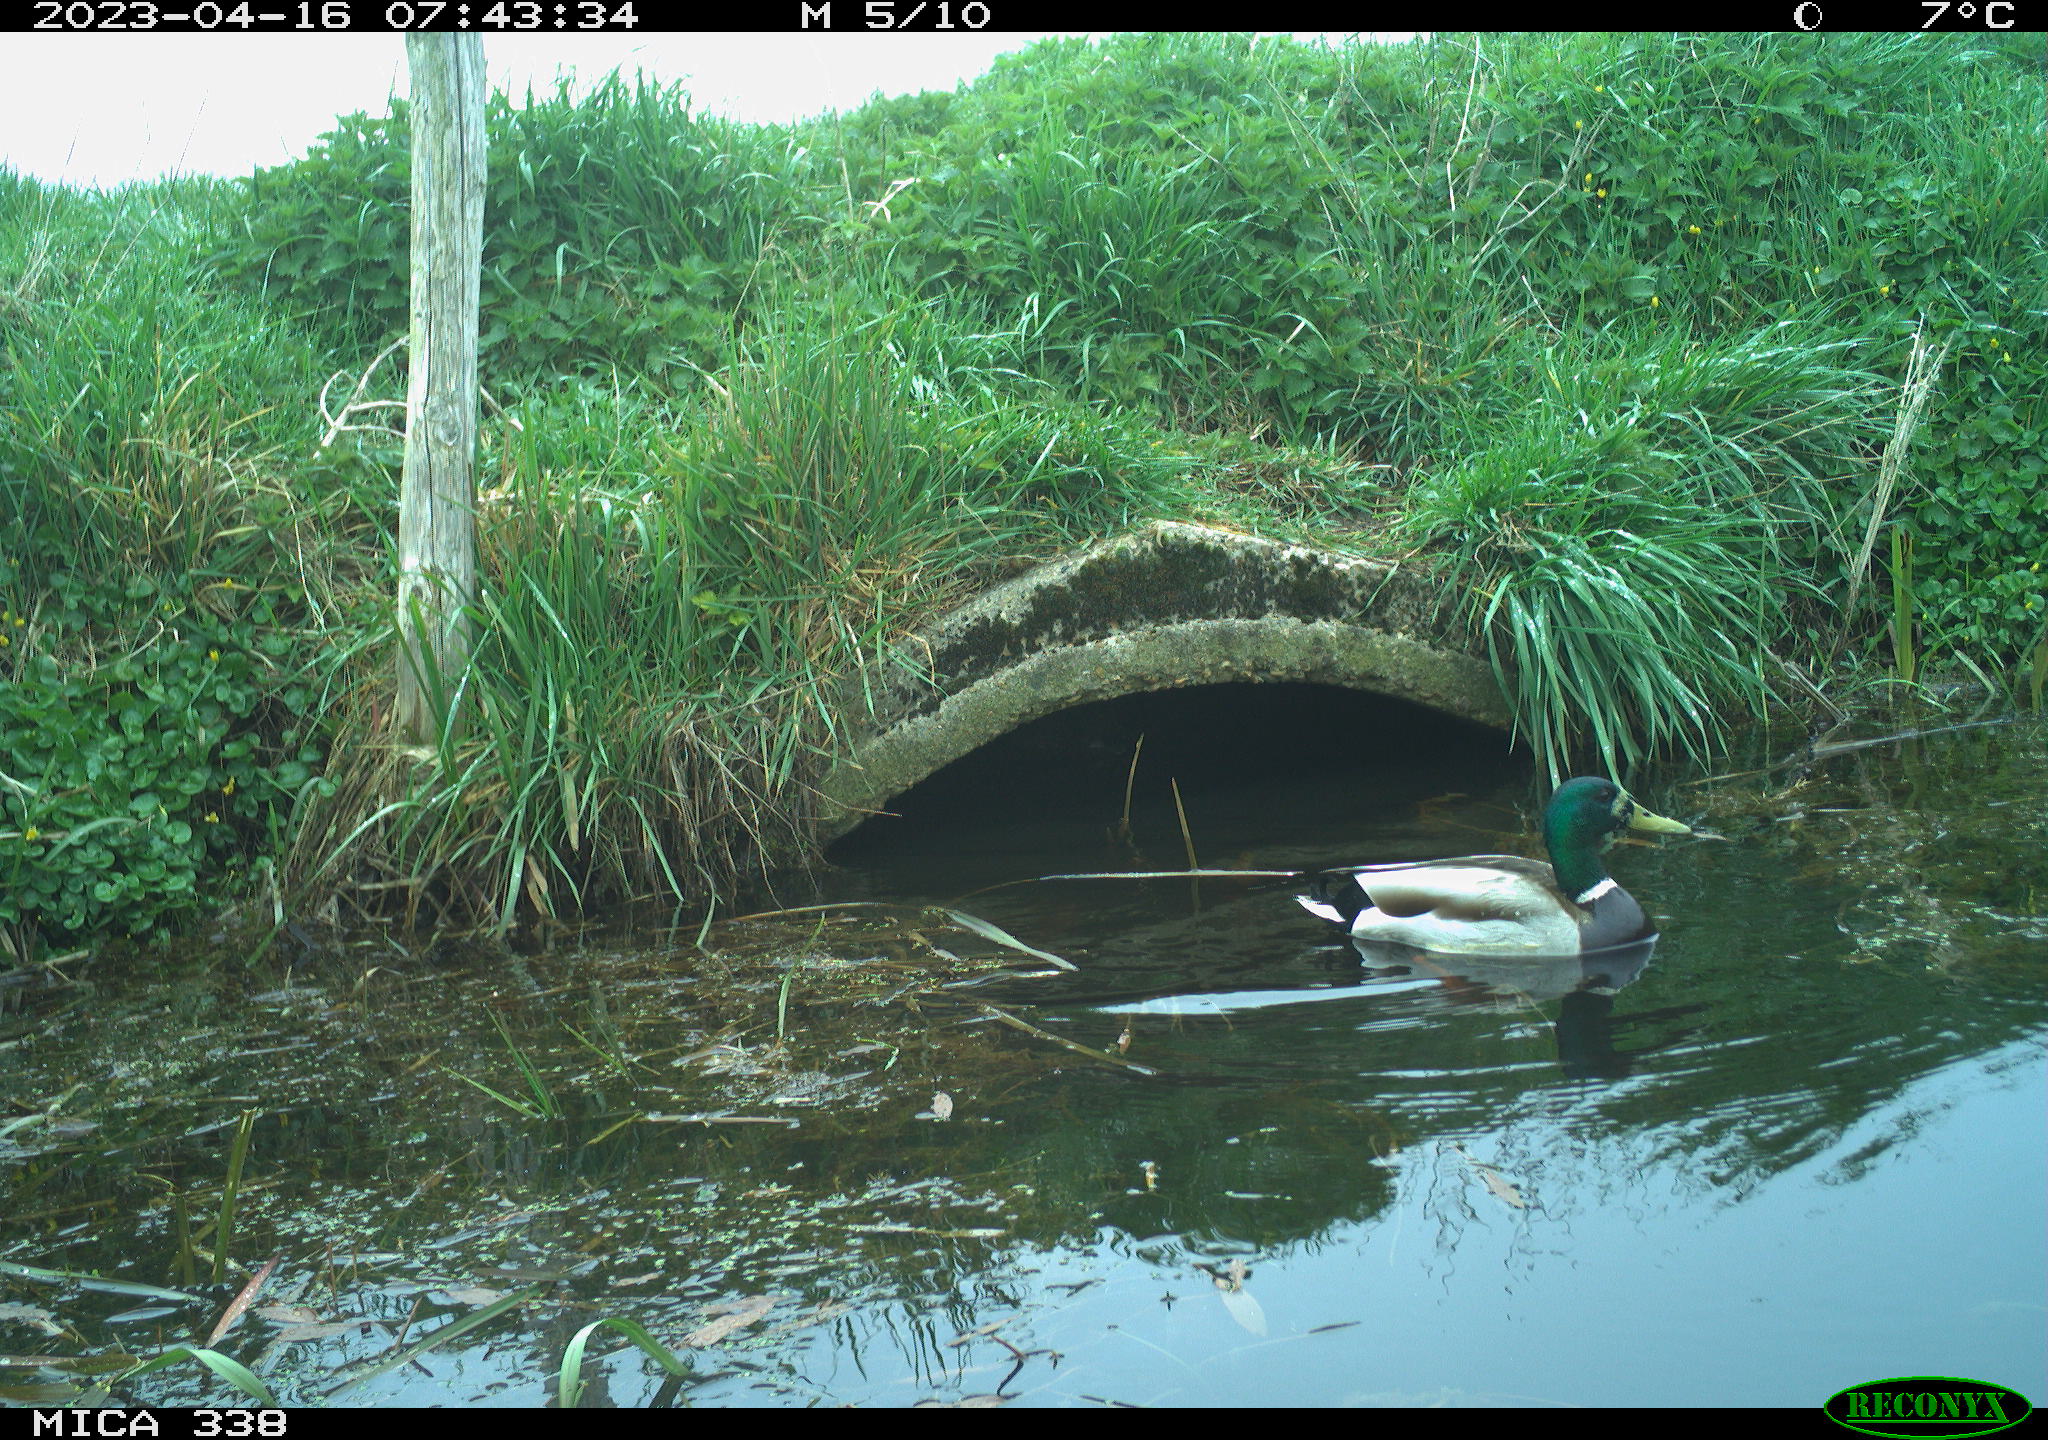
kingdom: Animalia
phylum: Chordata
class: Aves
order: Anseriformes
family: Anatidae
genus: Anas
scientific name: Anas platyrhynchos
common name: Mallard
